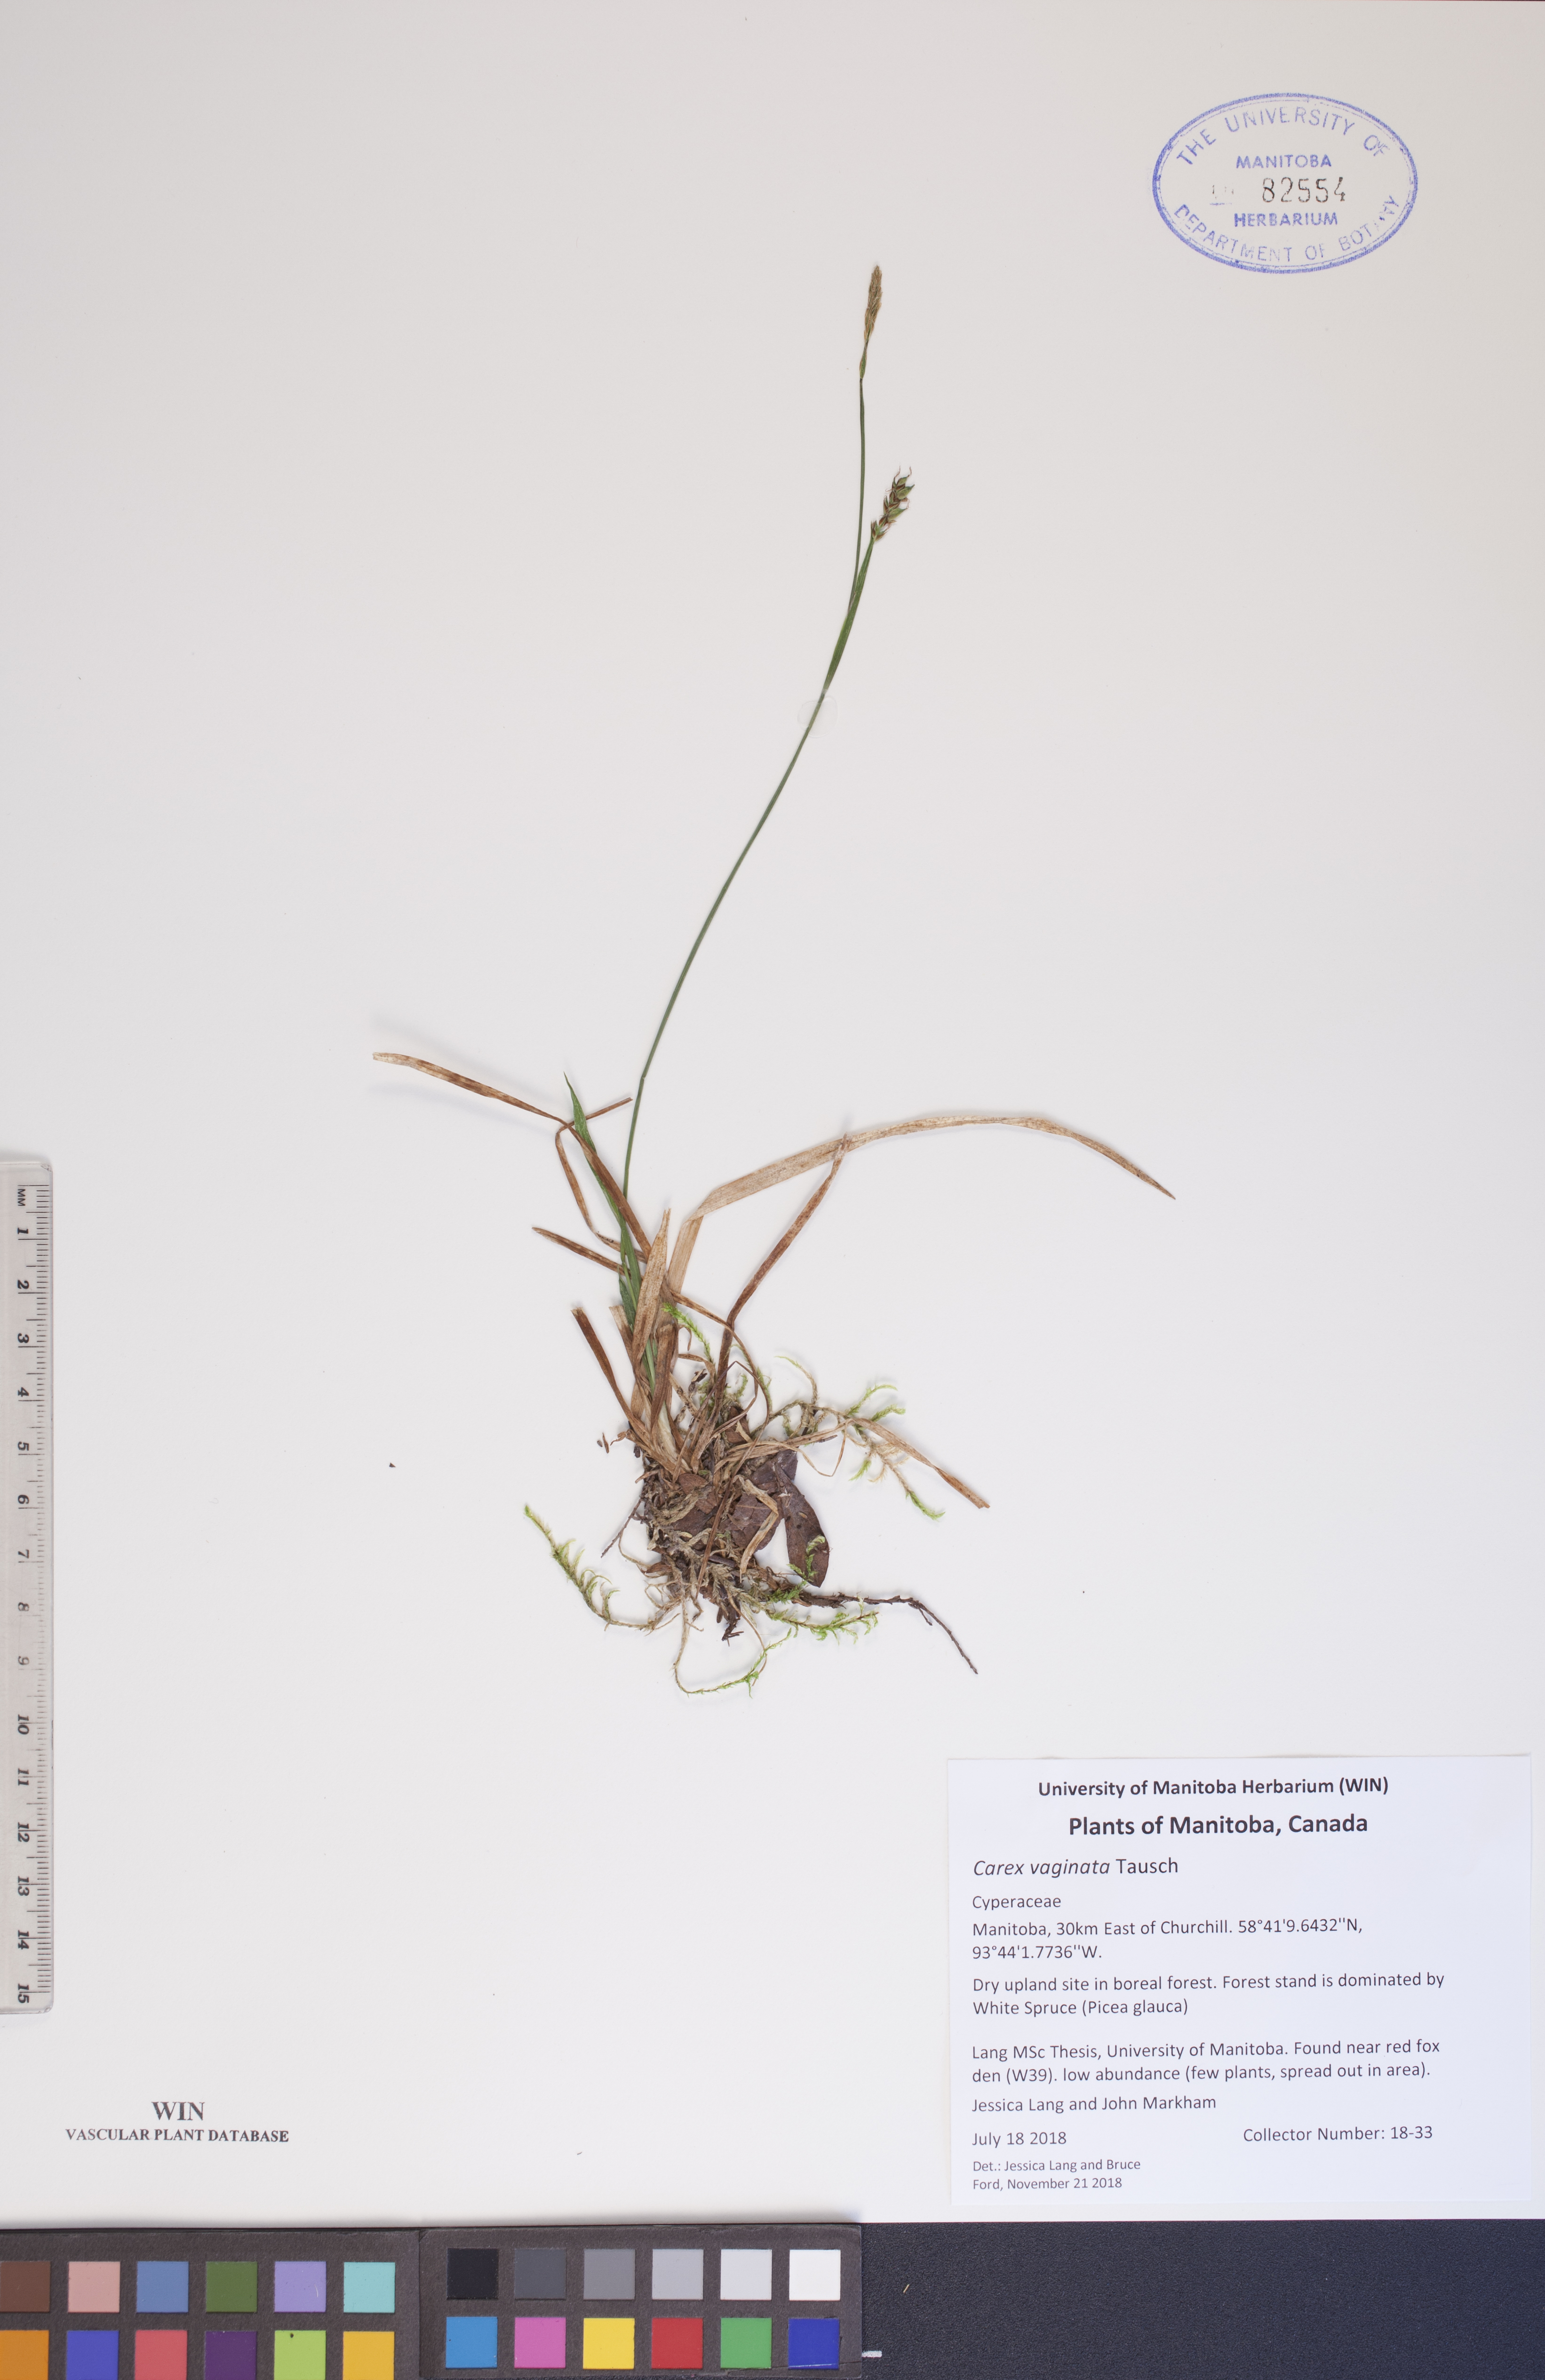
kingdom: Plantae
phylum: Tracheophyta
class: Liliopsida
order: Poales
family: Cyperaceae
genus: Carex
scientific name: Carex vaginata
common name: Sheathed sedge
